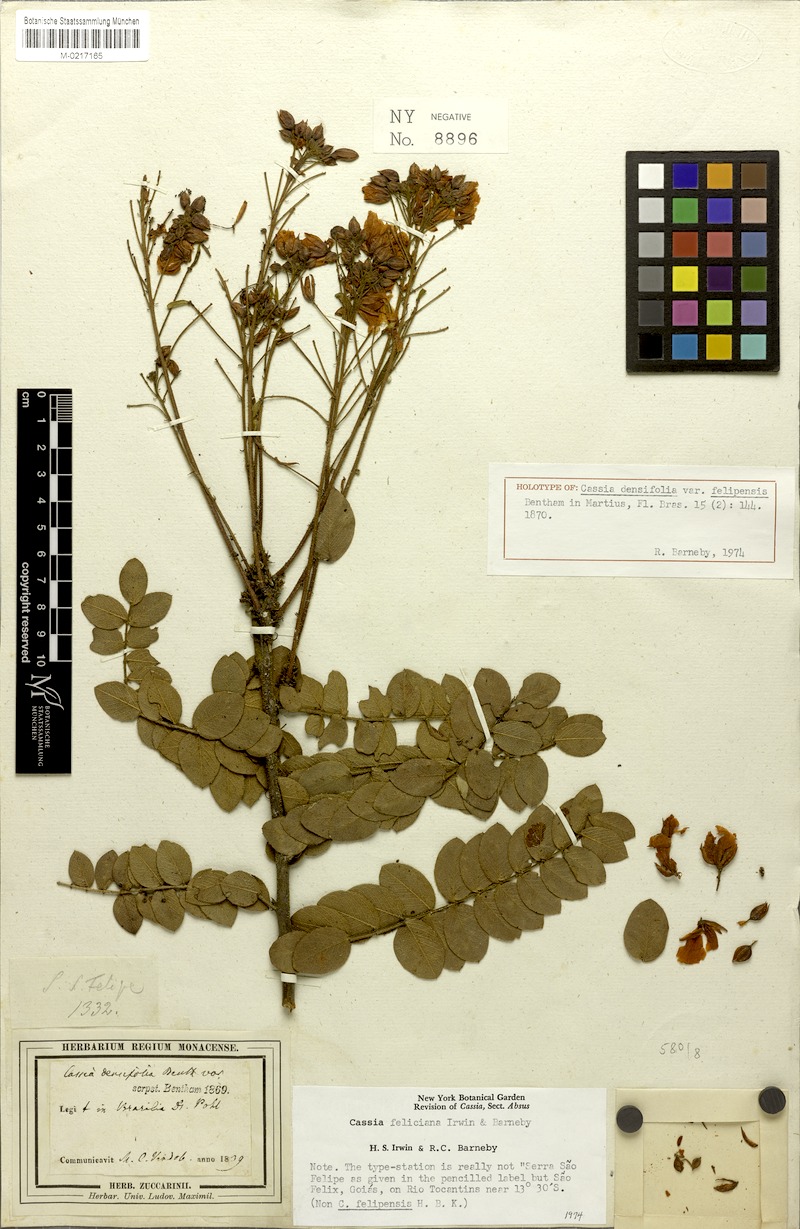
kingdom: Plantae
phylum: Tracheophyta
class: Magnoliopsida
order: Fabales
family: Fabaceae
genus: Chamaecrista
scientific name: Chamaecrista feliciana
